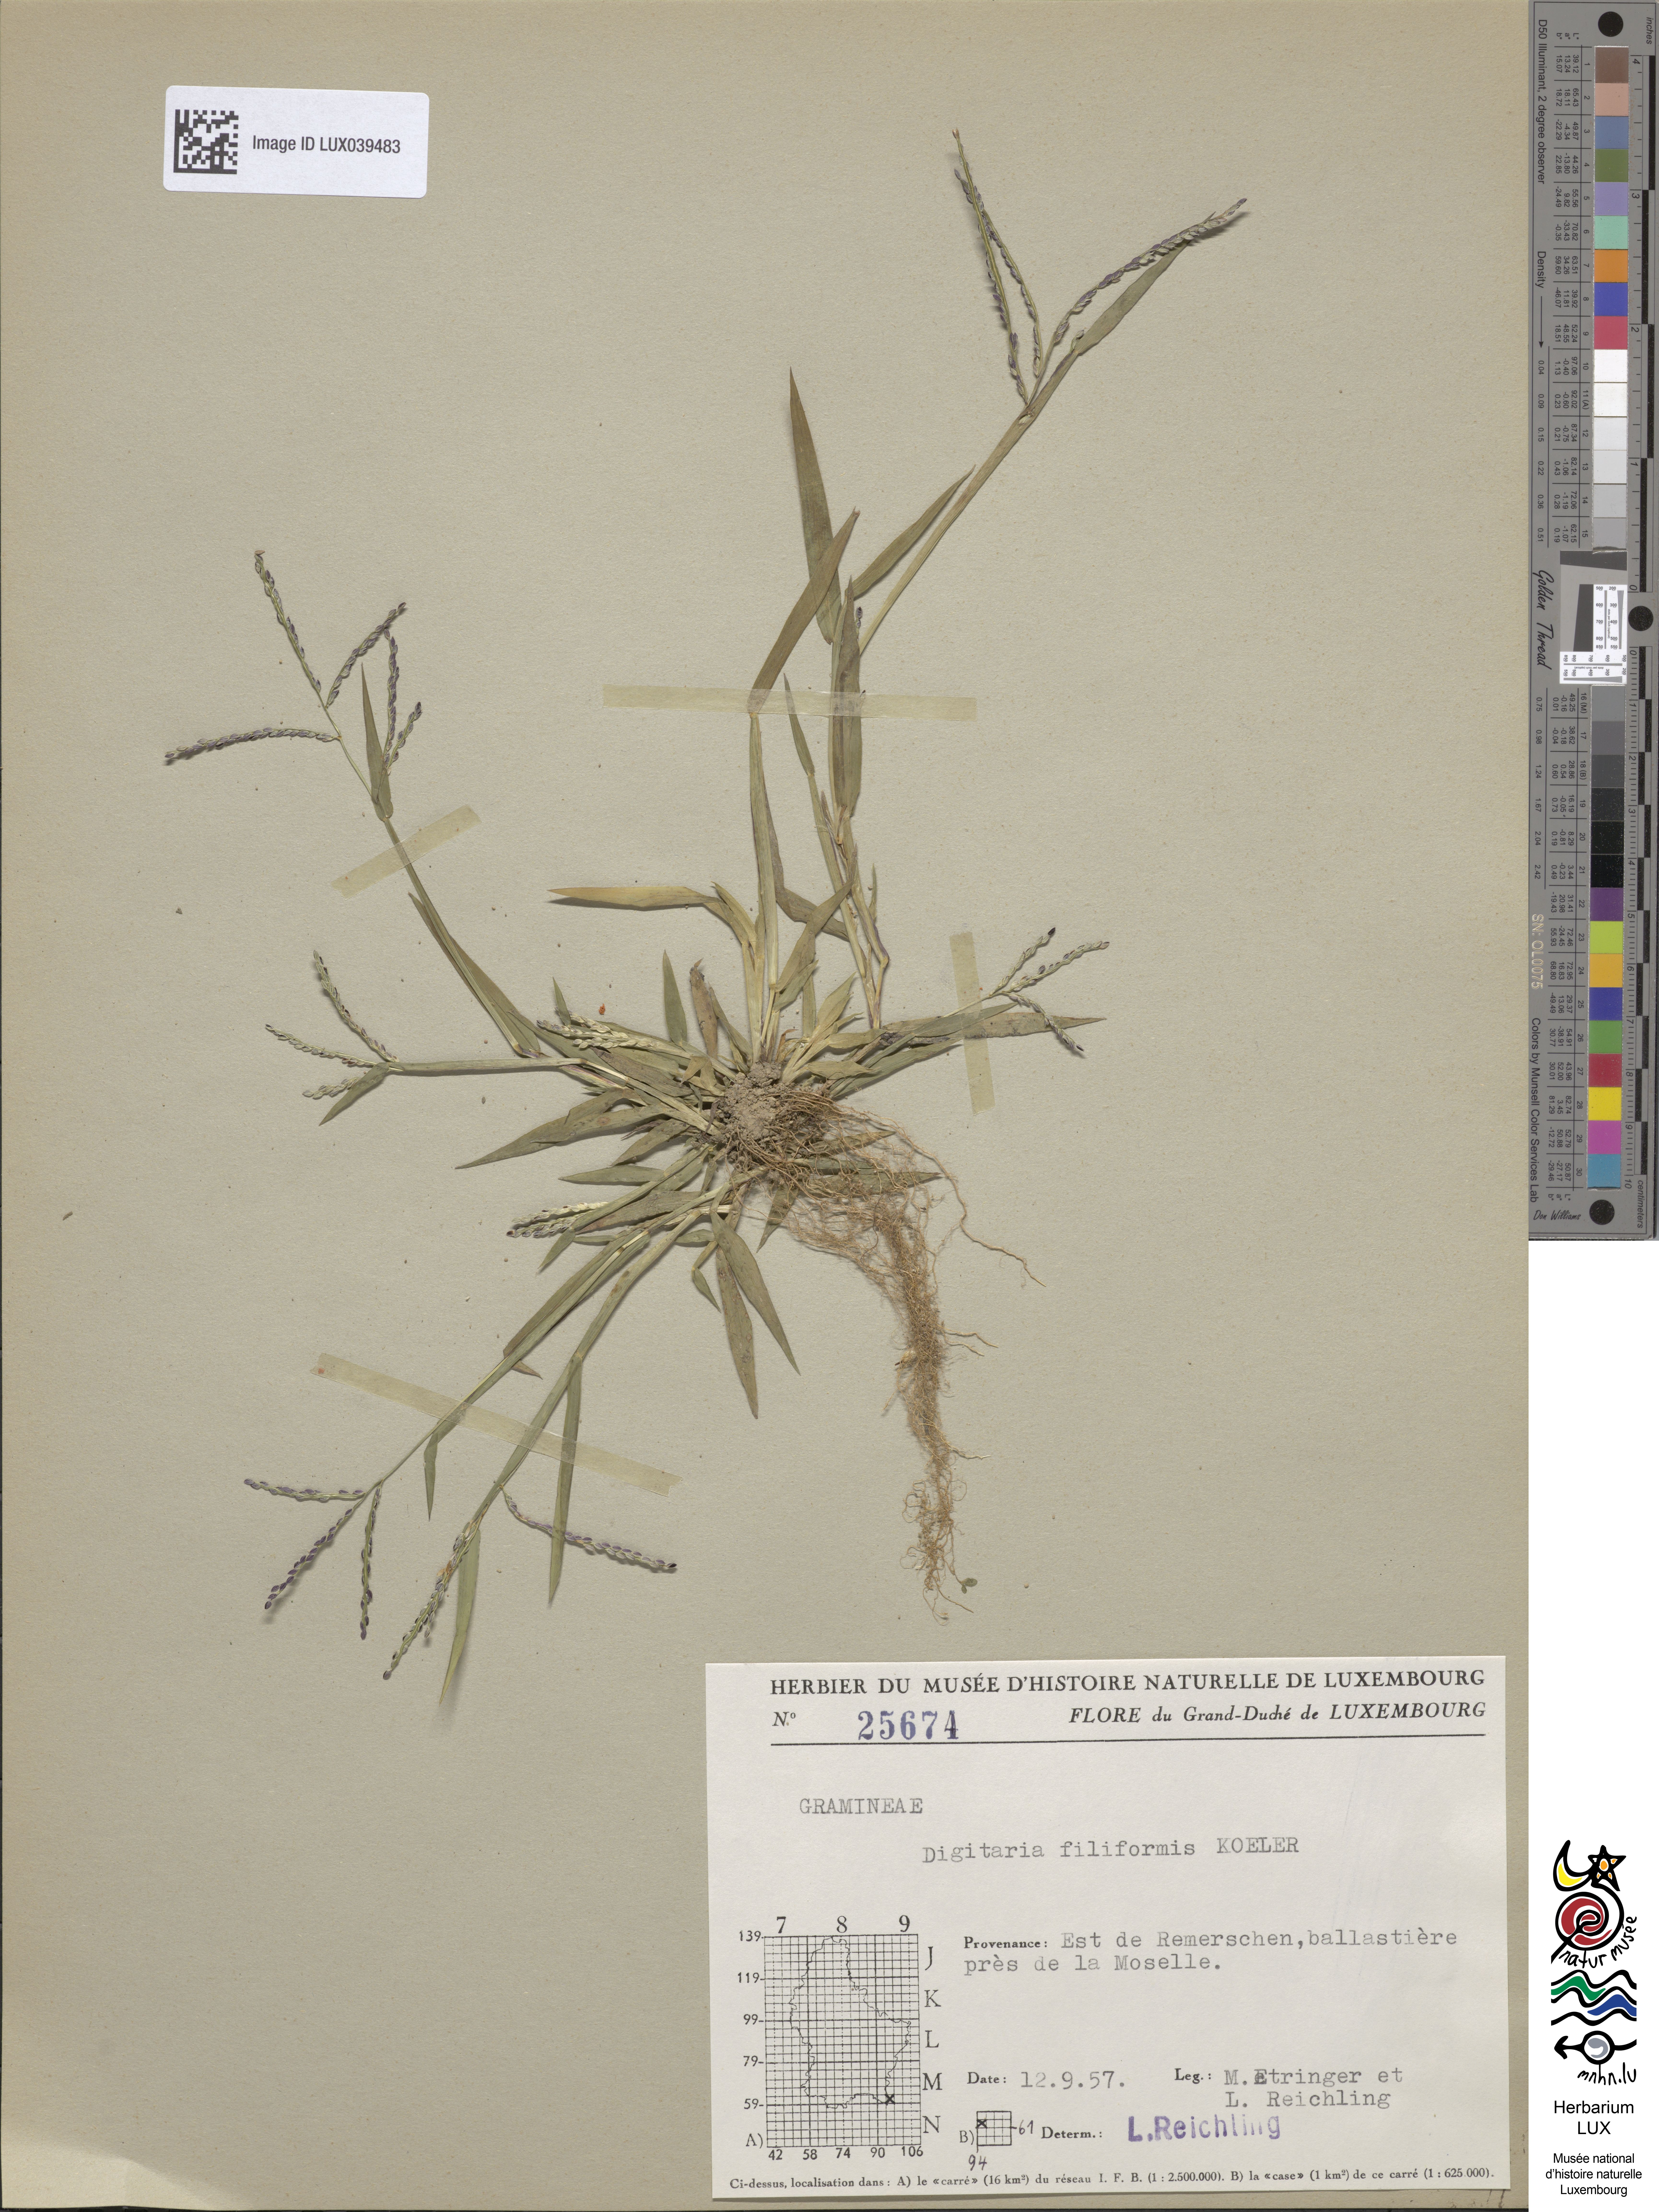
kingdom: Plantae
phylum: Tracheophyta
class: Liliopsida
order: Poales
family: Poaceae
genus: Digitaria
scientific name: Digitaria filiformis
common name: Slender crabgrass
